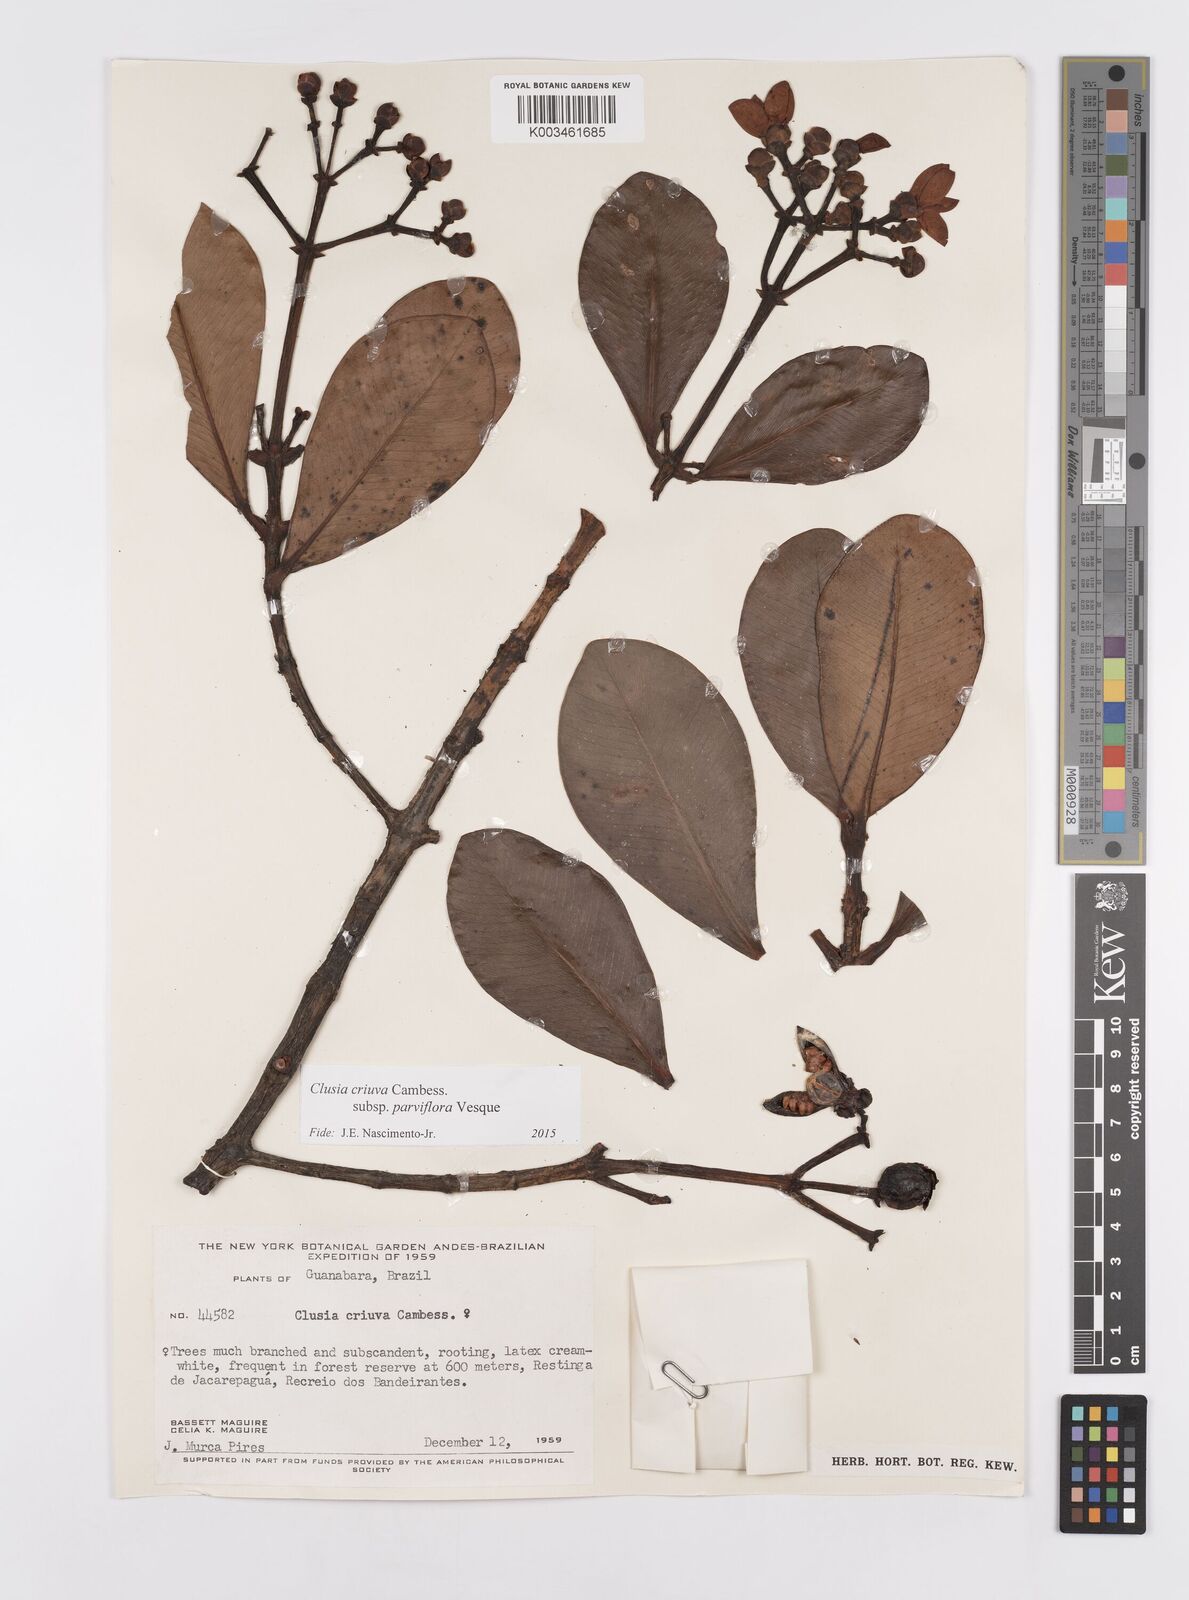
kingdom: Plantae
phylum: Tracheophyta
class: Magnoliopsida
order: Malpighiales
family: Clusiaceae
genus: Clusia
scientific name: Clusia criuva
